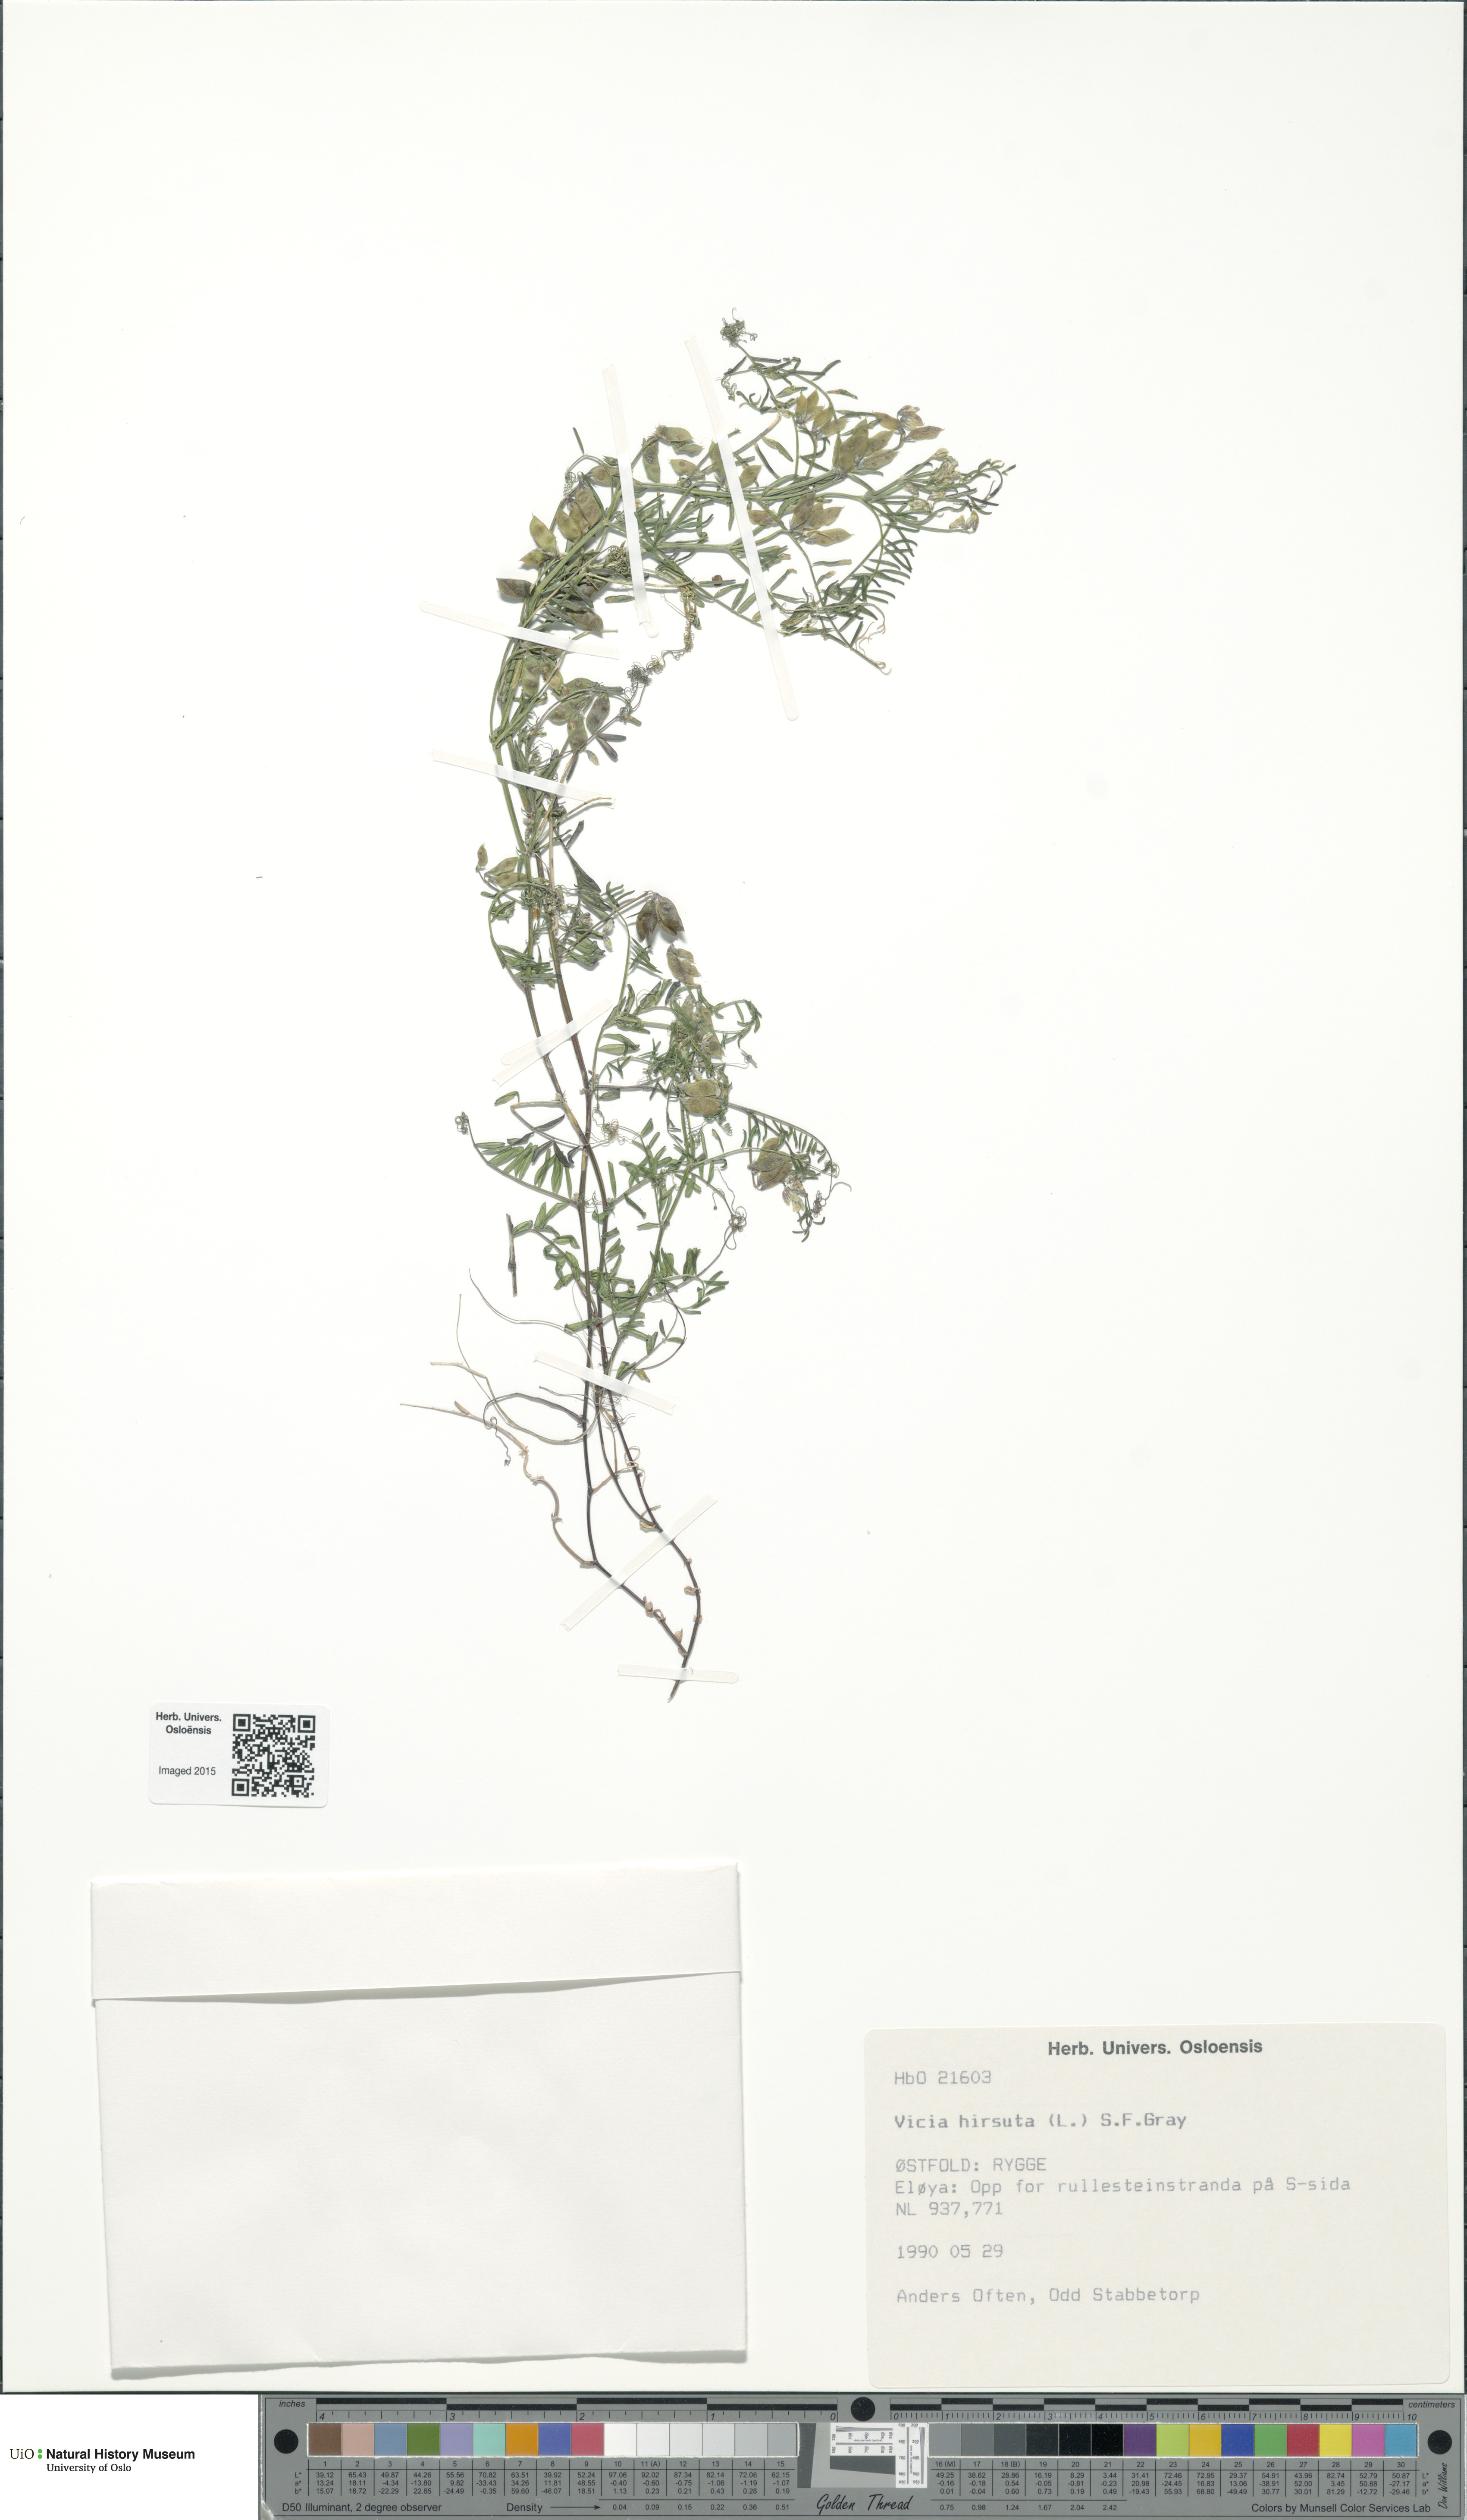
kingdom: Plantae
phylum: Tracheophyta
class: Magnoliopsida
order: Fabales
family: Fabaceae
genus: Vicia
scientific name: Vicia hirsuta
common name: Tiny vetch
